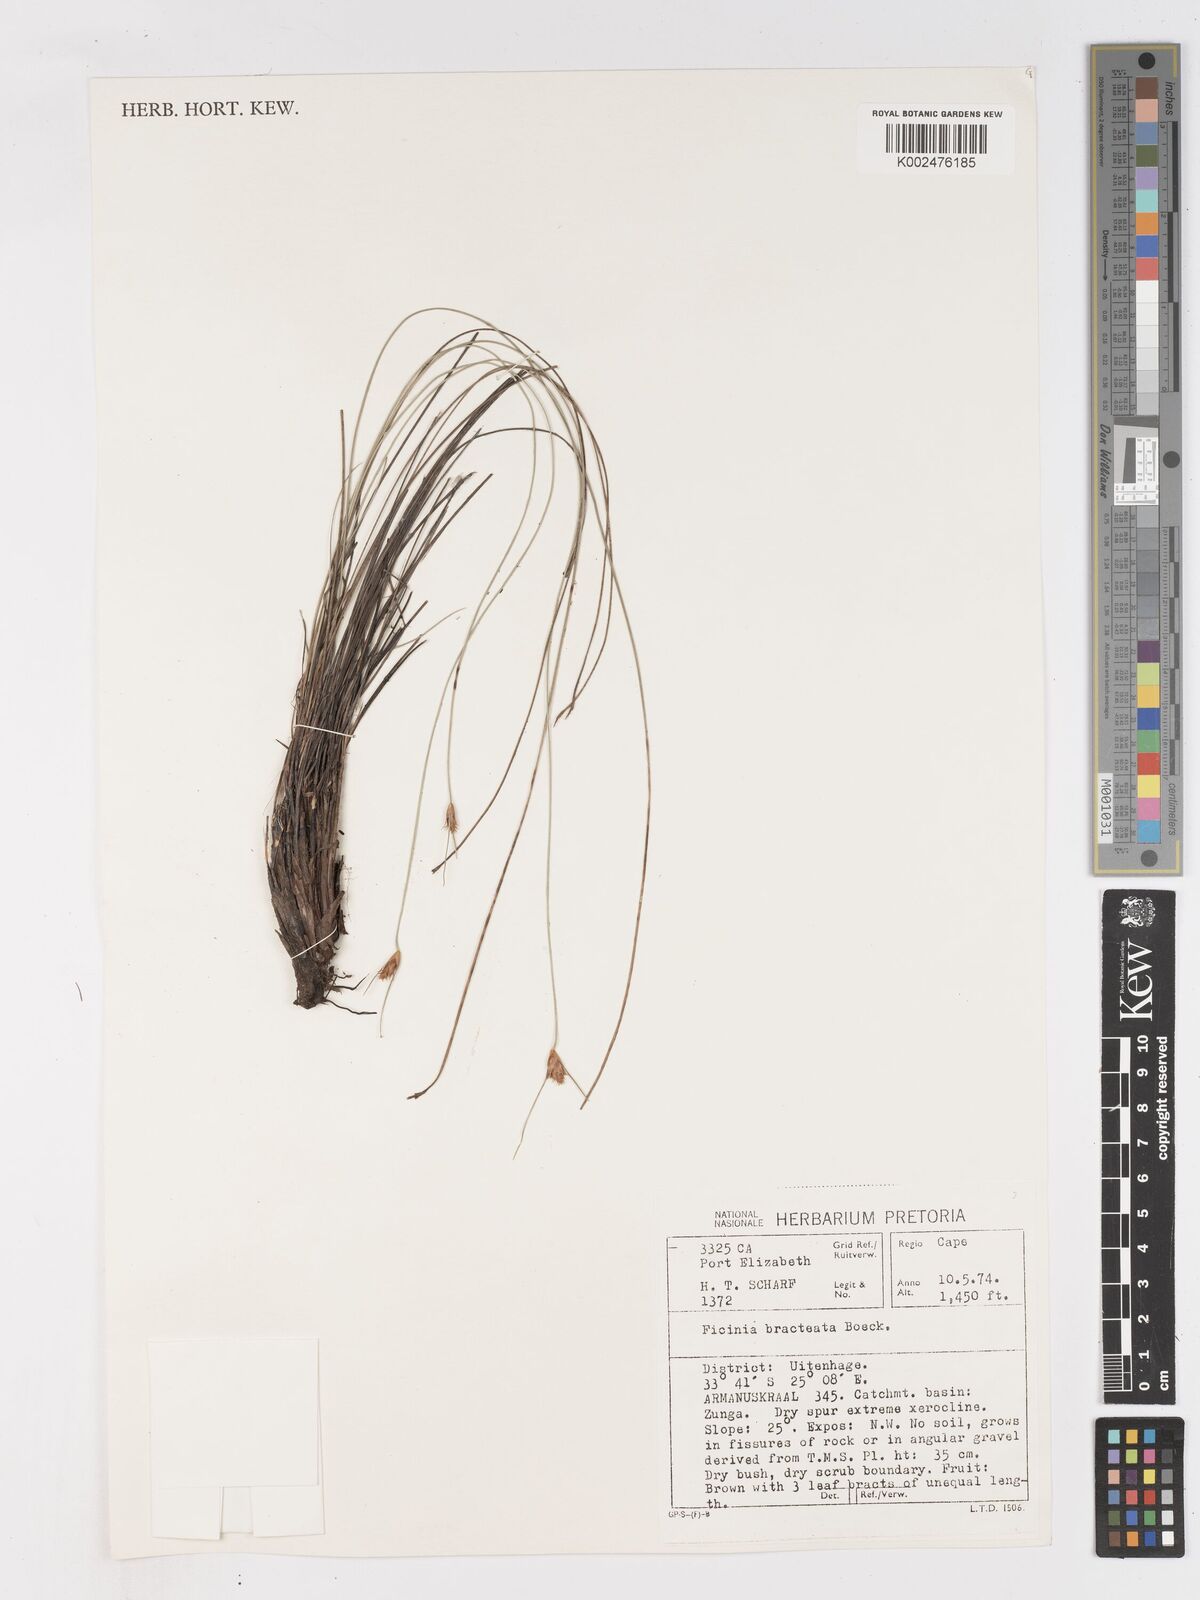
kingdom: Plantae
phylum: Tracheophyta
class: Liliopsida
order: Poales
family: Cyperaceae
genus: Ficinia
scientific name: Ficinia nigrescens
